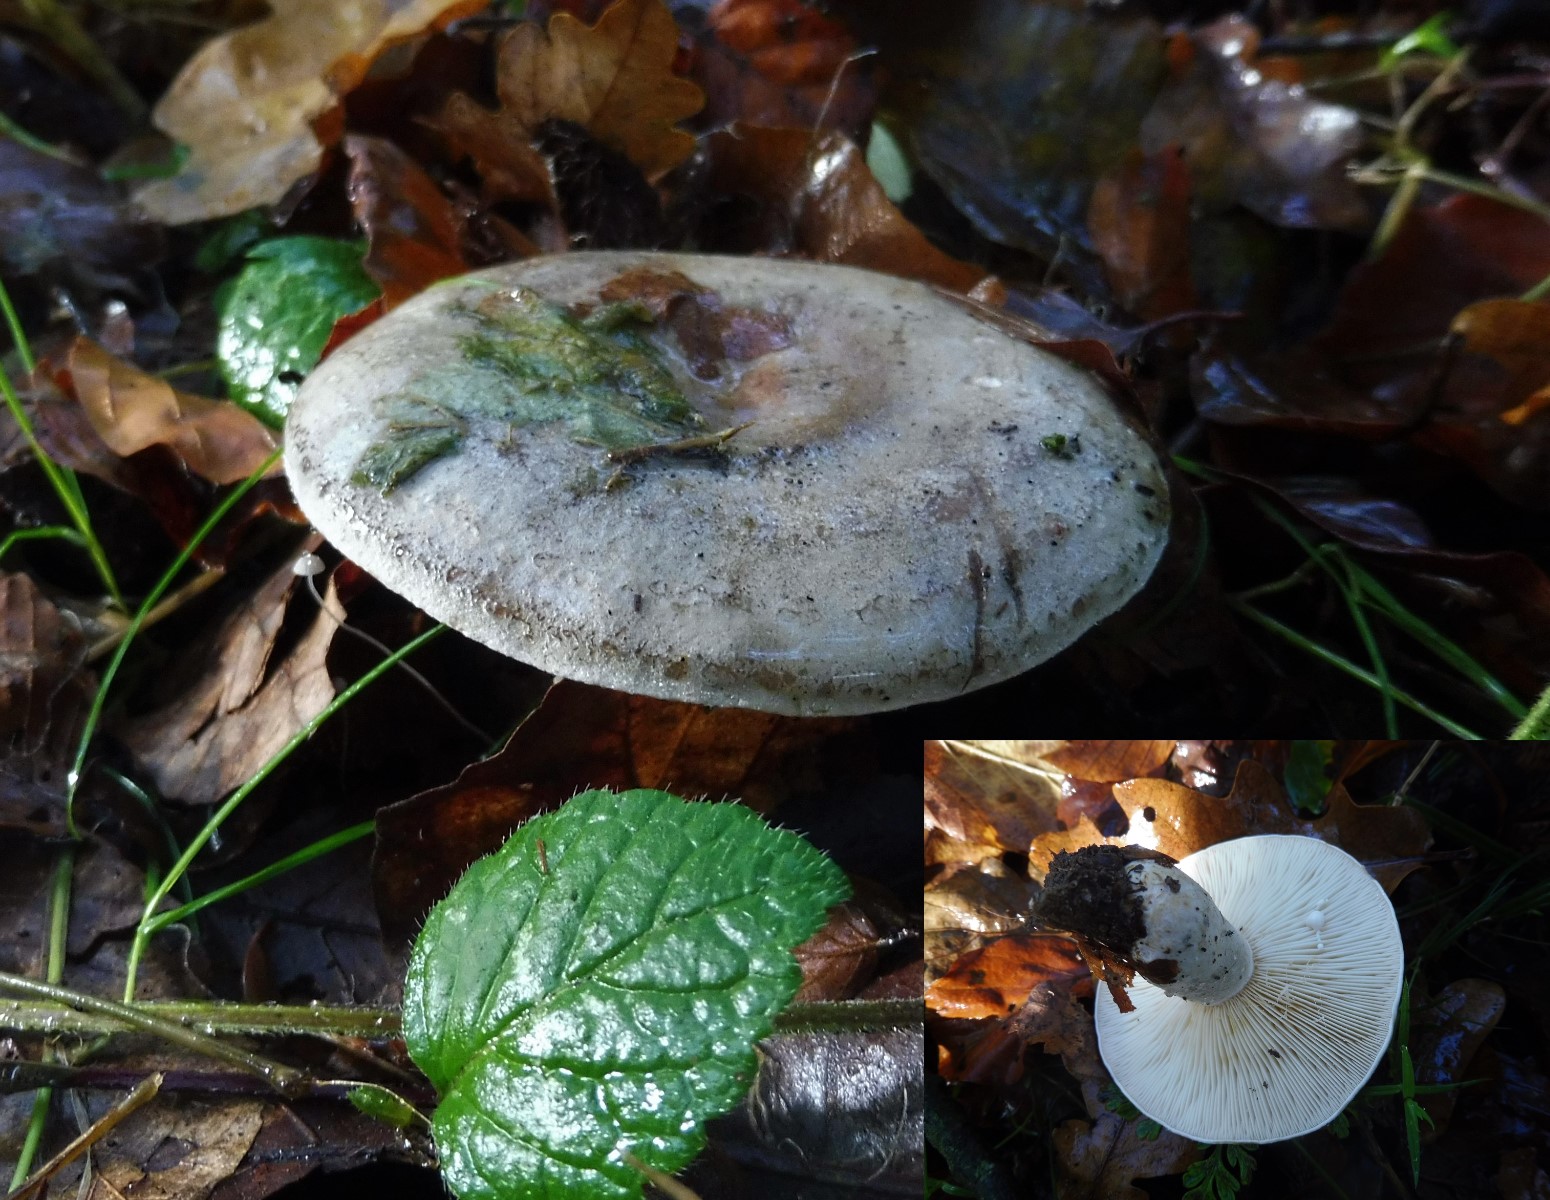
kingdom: Fungi
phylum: Basidiomycota
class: Agaricomycetes
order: Russulales
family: Russulaceae
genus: Lactarius
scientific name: Lactarius fluens
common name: lysrandet mælkehat
